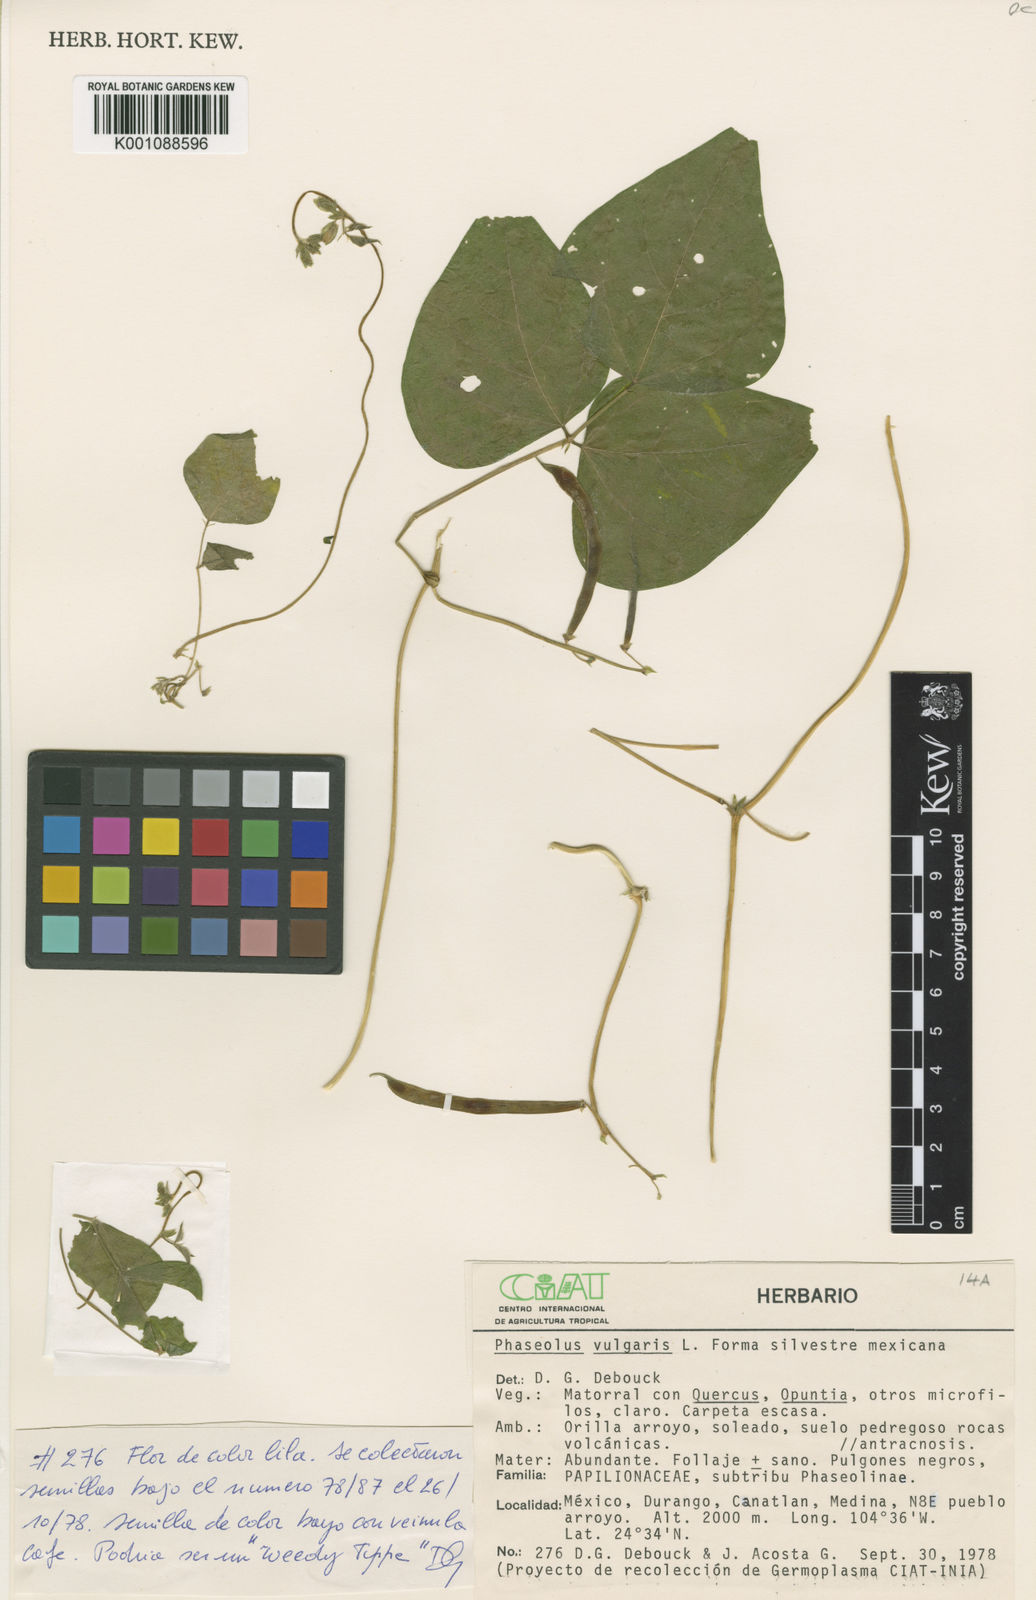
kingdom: Plantae
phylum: Tracheophyta
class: Magnoliopsida
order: Fabales
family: Fabaceae
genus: Phaseolus
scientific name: Phaseolus vulgaris
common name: Bean
